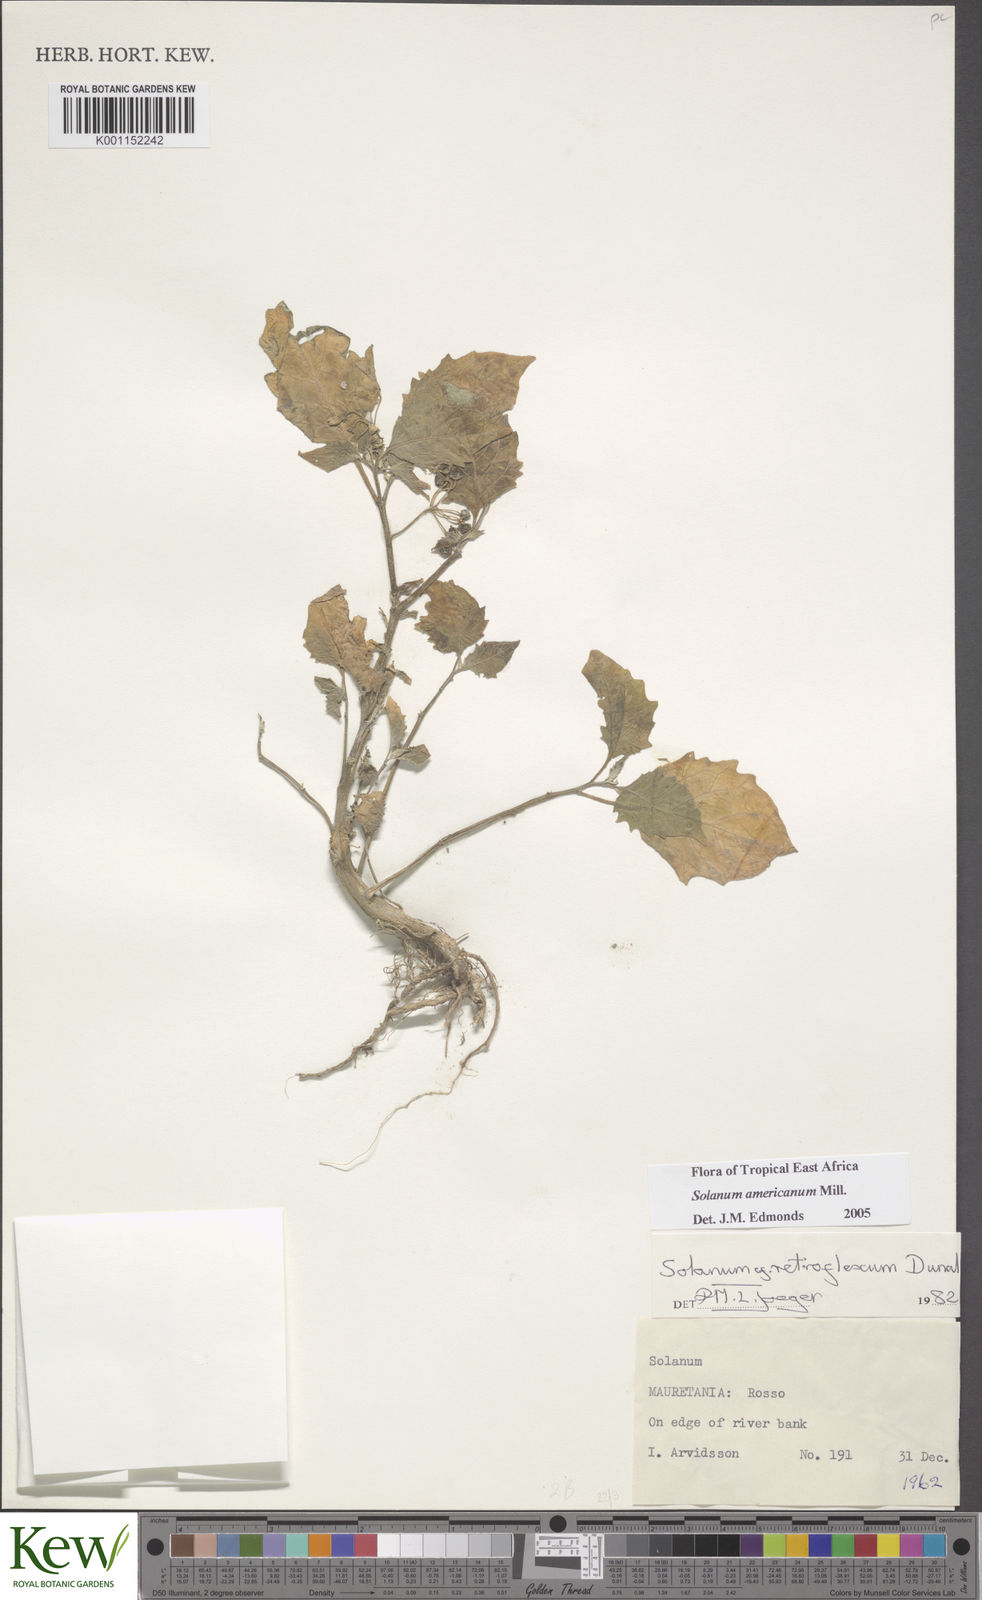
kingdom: Plantae
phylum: Tracheophyta
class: Magnoliopsida
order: Solanales
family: Solanaceae
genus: Solanum
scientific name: Solanum americanum
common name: American black nightshade
